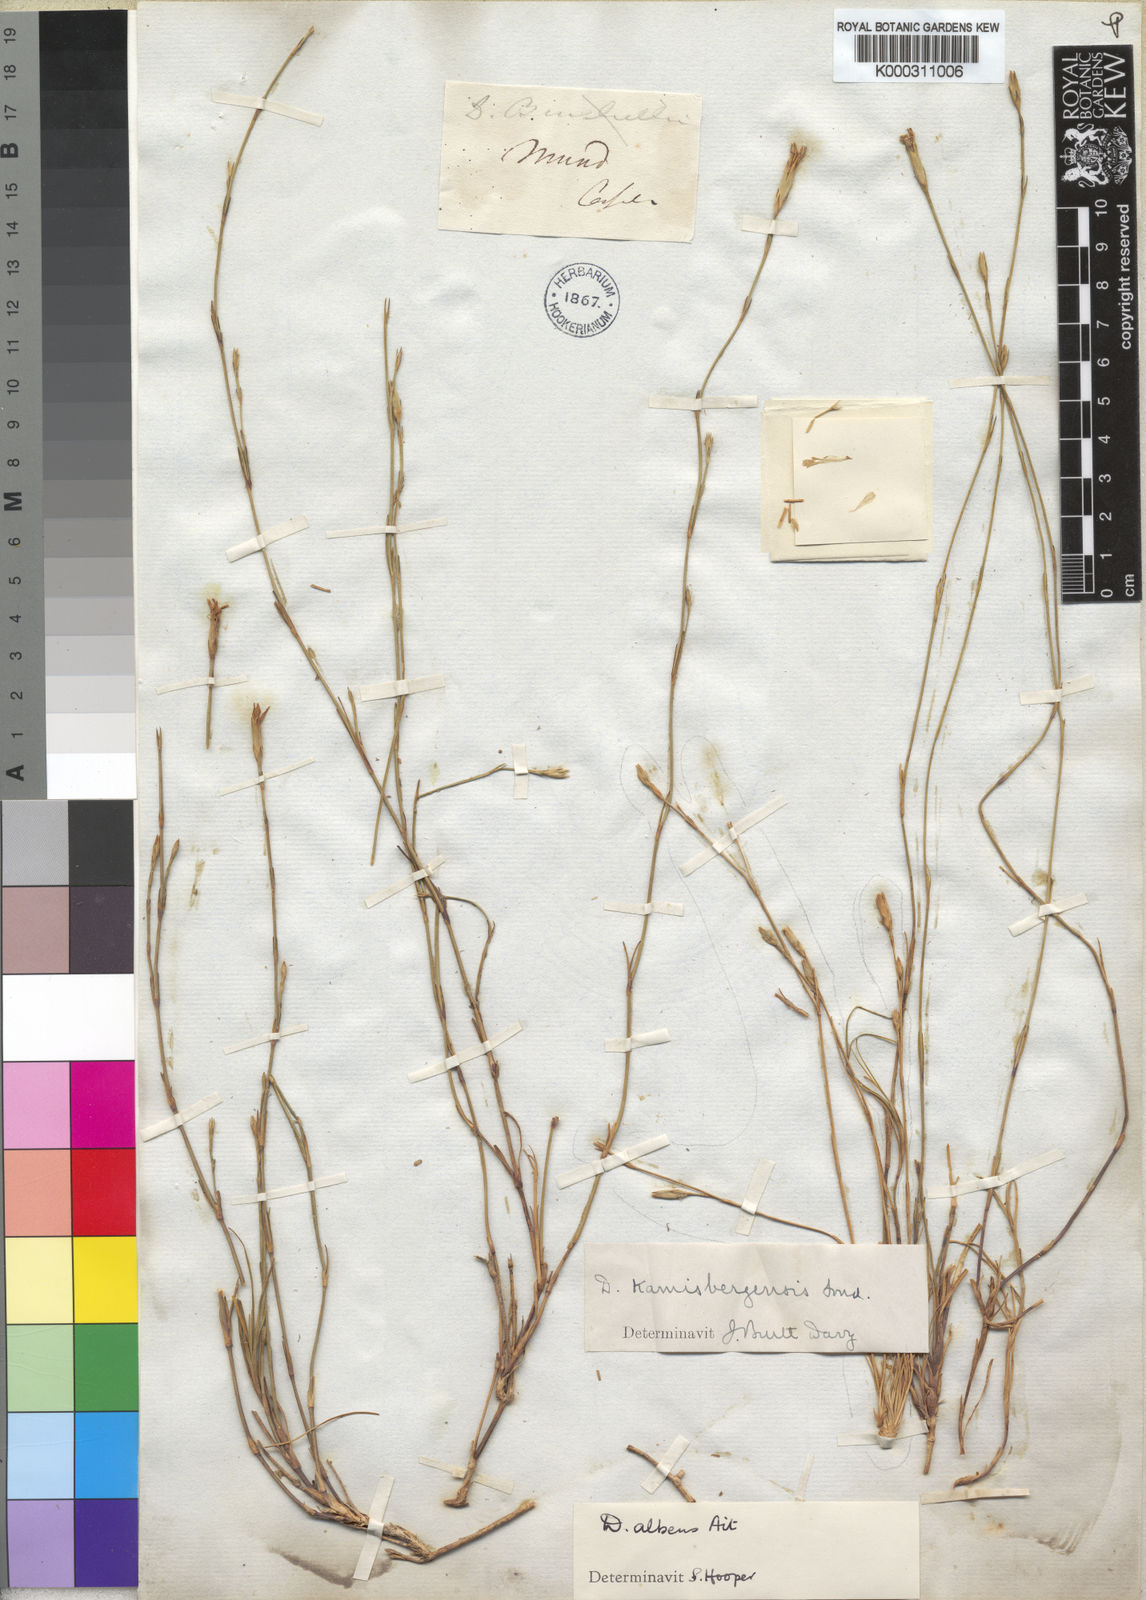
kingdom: Plantae
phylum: Tracheophyta
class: Magnoliopsida
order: Caryophyllales
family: Caryophyllaceae
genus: Dianthus
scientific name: Dianthus albens
